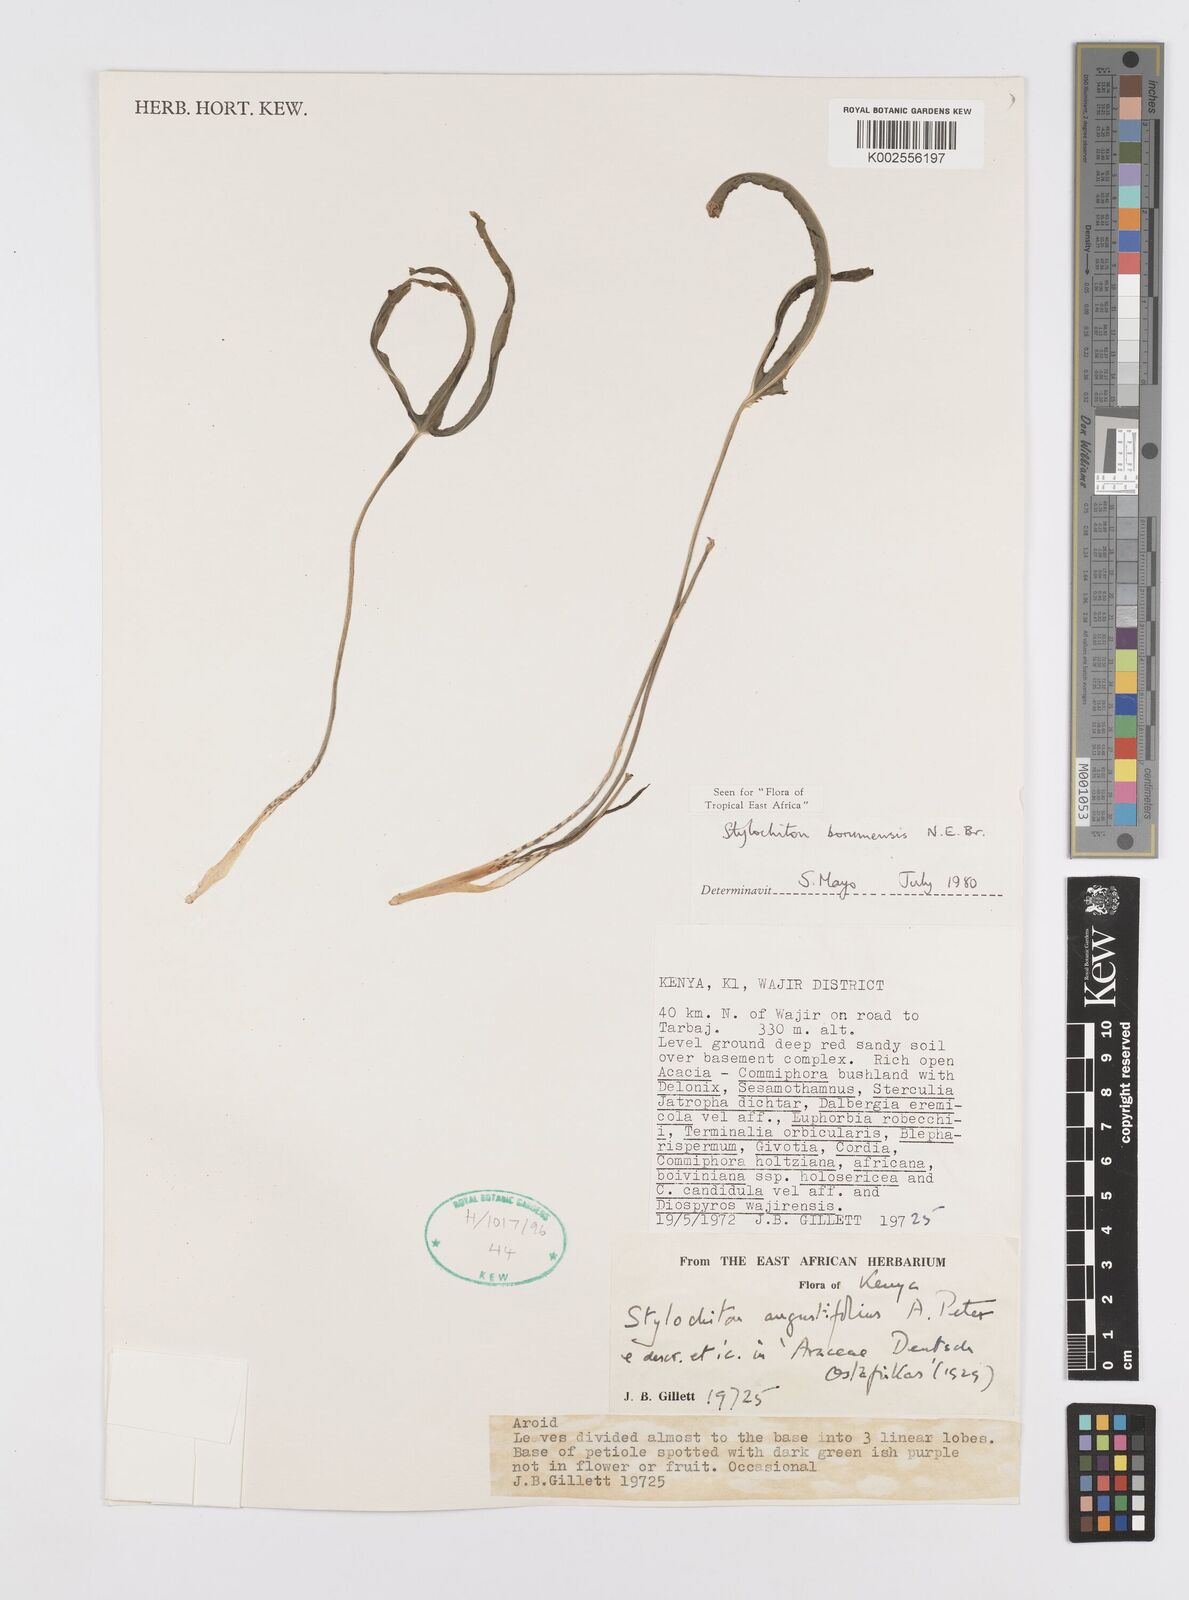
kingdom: Plantae
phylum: Tracheophyta
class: Liliopsida
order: Alismatales
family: Araceae
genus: Stylochaeton
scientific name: Stylochaeton borumense
